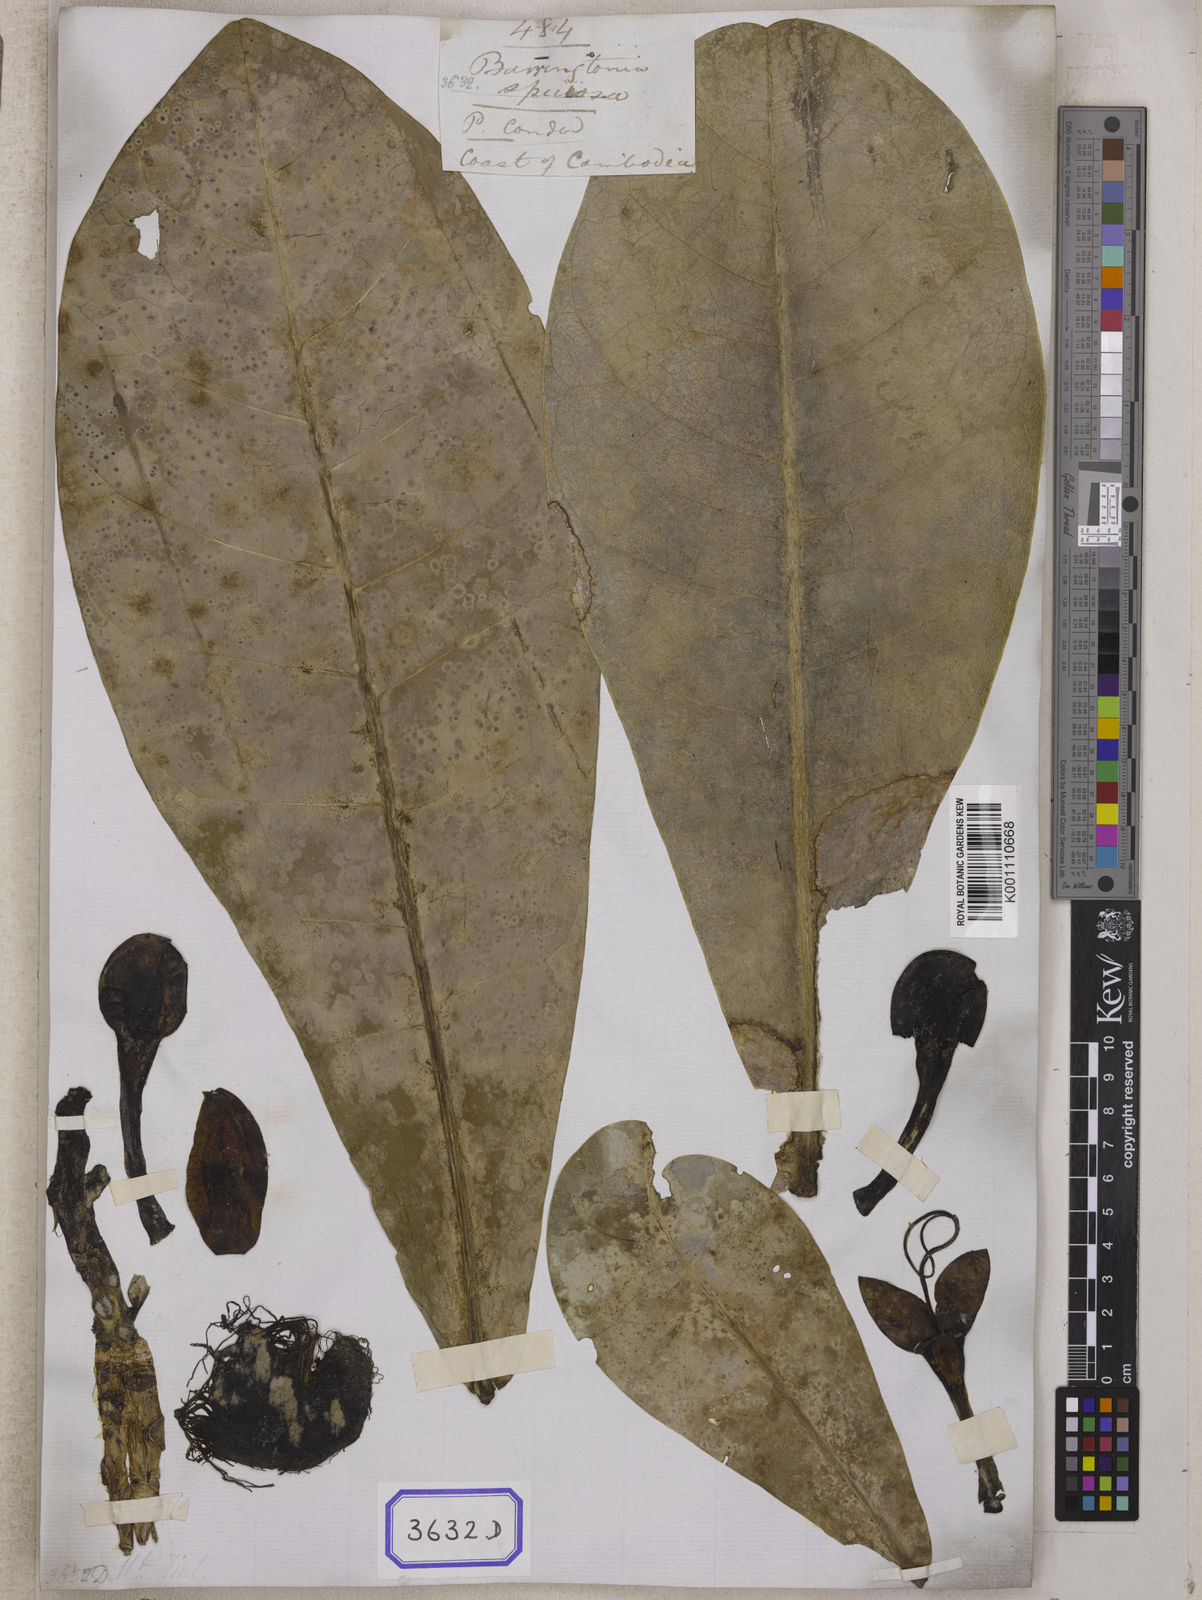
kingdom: Plantae
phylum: Tracheophyta
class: Magnoliopsida
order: Ericales
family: Lecythidaceae
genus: Barringtonia
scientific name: Barringtonia
